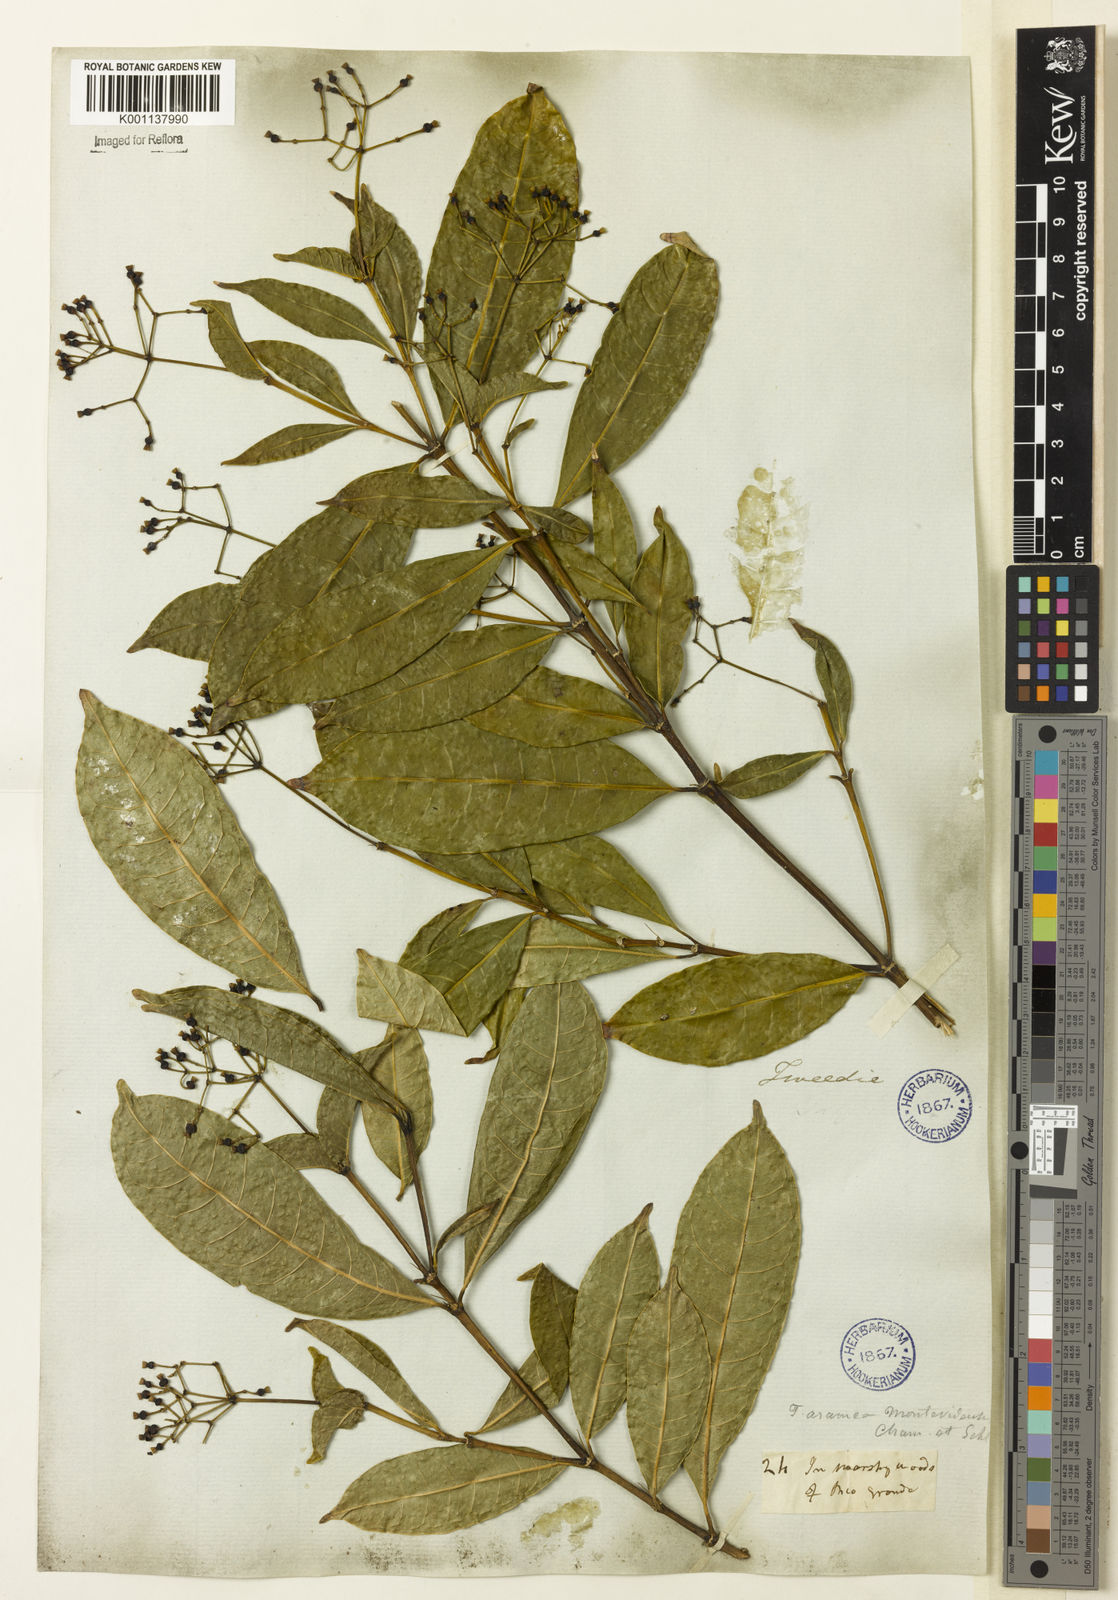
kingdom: Plantae
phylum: Tracheophyta
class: Magnoliopsida
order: Gentianales
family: Rubiaceae
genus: Faramea
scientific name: Faramea montevidensis
